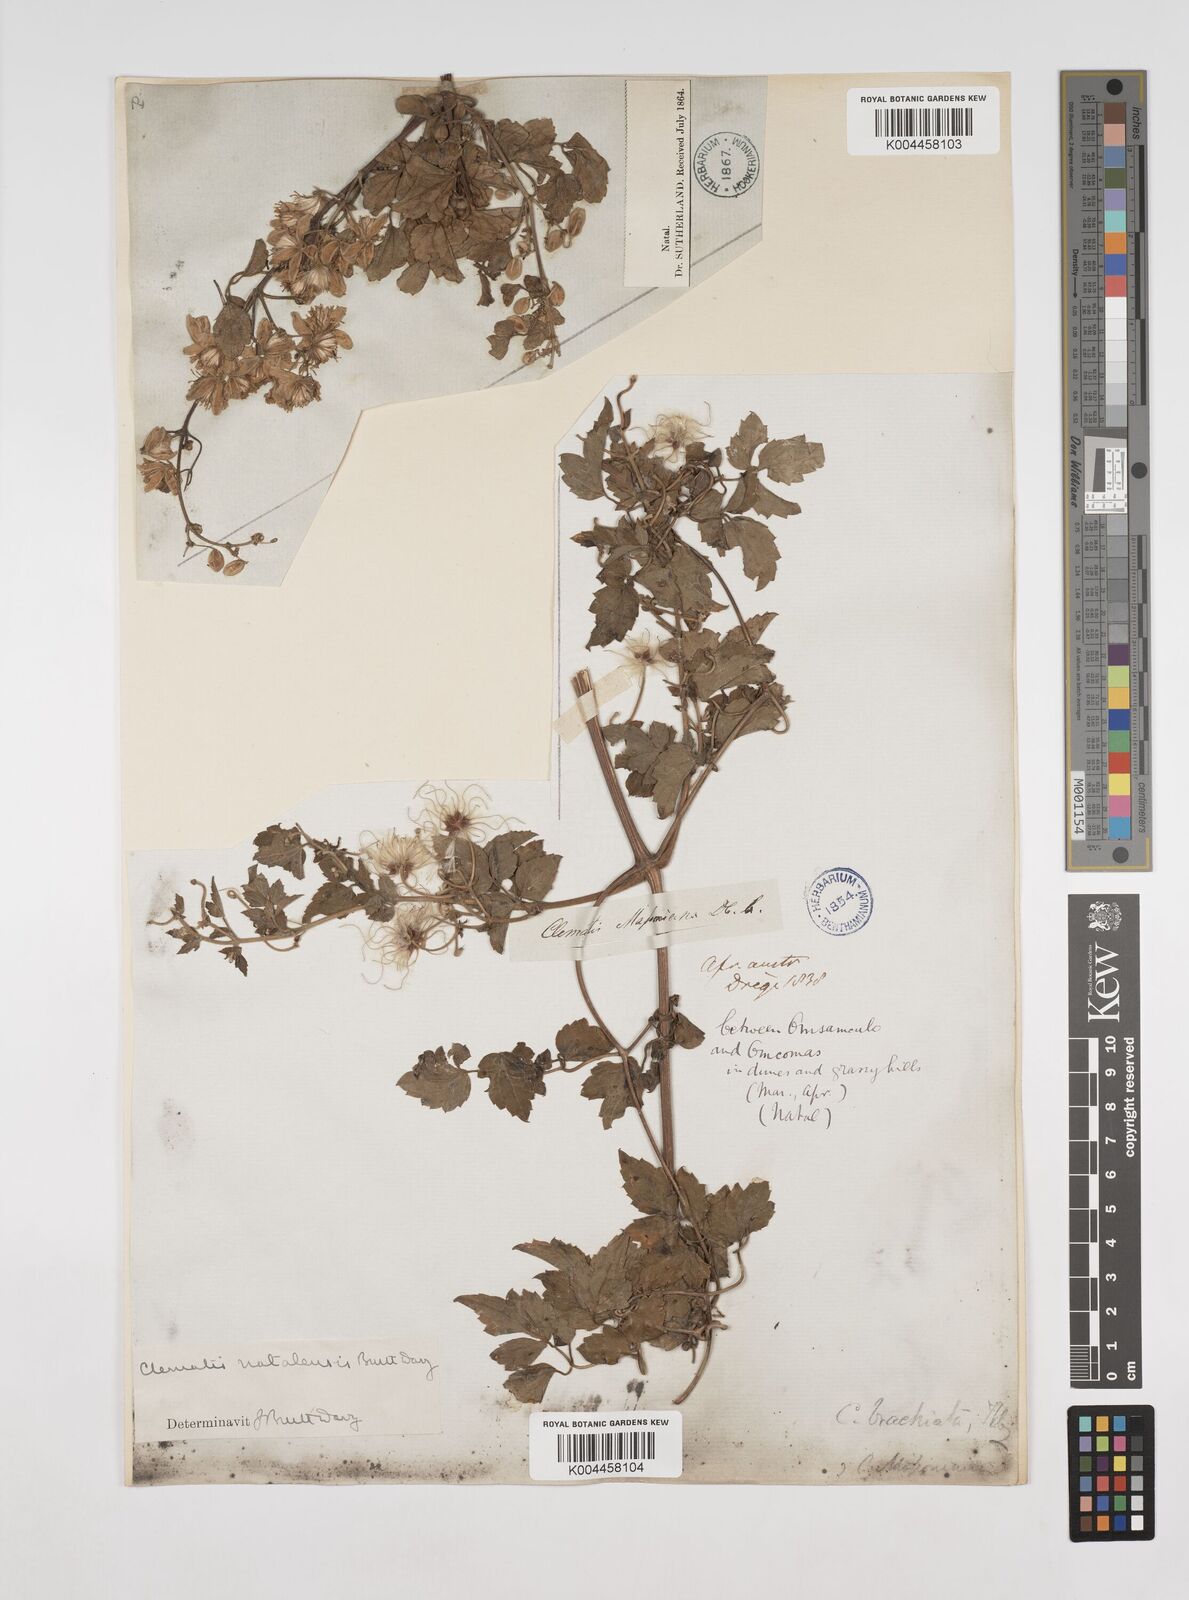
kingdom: Plantae
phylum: Tracheophyta
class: Magnoliopsida
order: Ranunculales
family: Ranunculaceae
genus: Clematis
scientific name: Clematis
